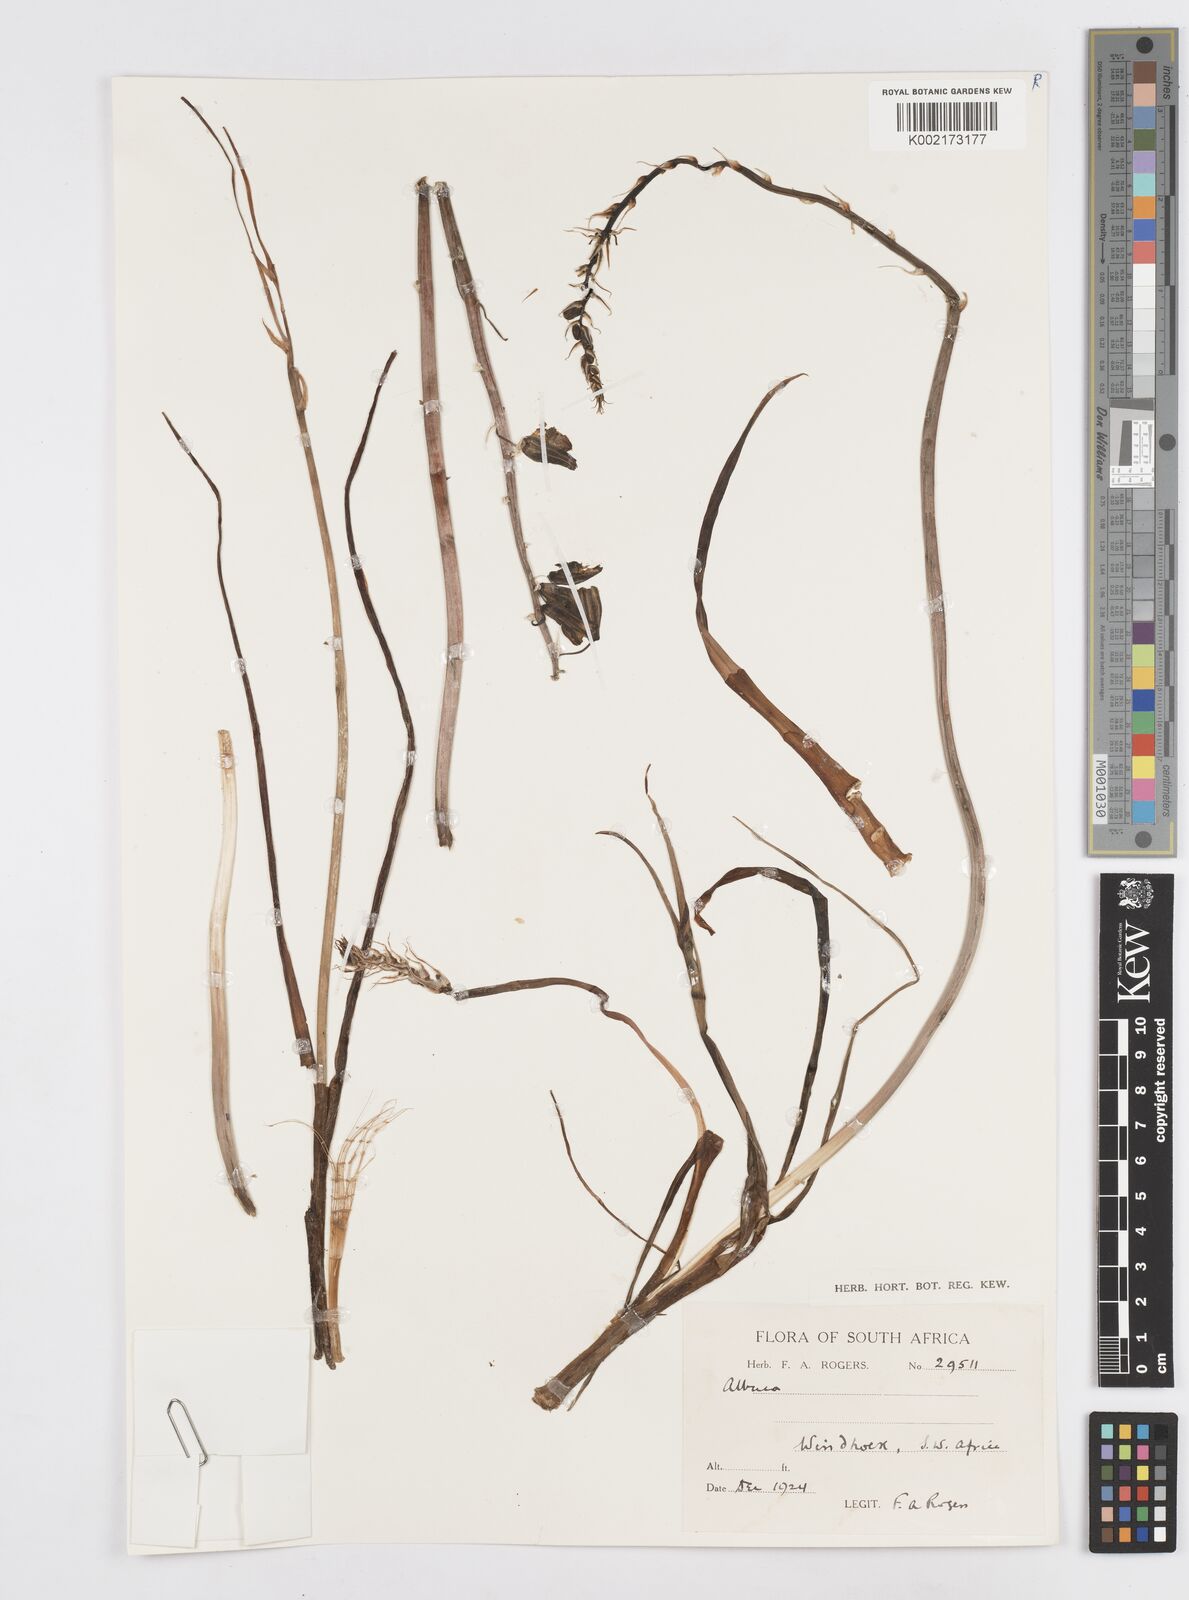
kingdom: Plantae
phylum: Tracheophyta
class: Liliopsida
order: Asparagales
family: Asparagaceae
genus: Albuca
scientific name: Albuca
